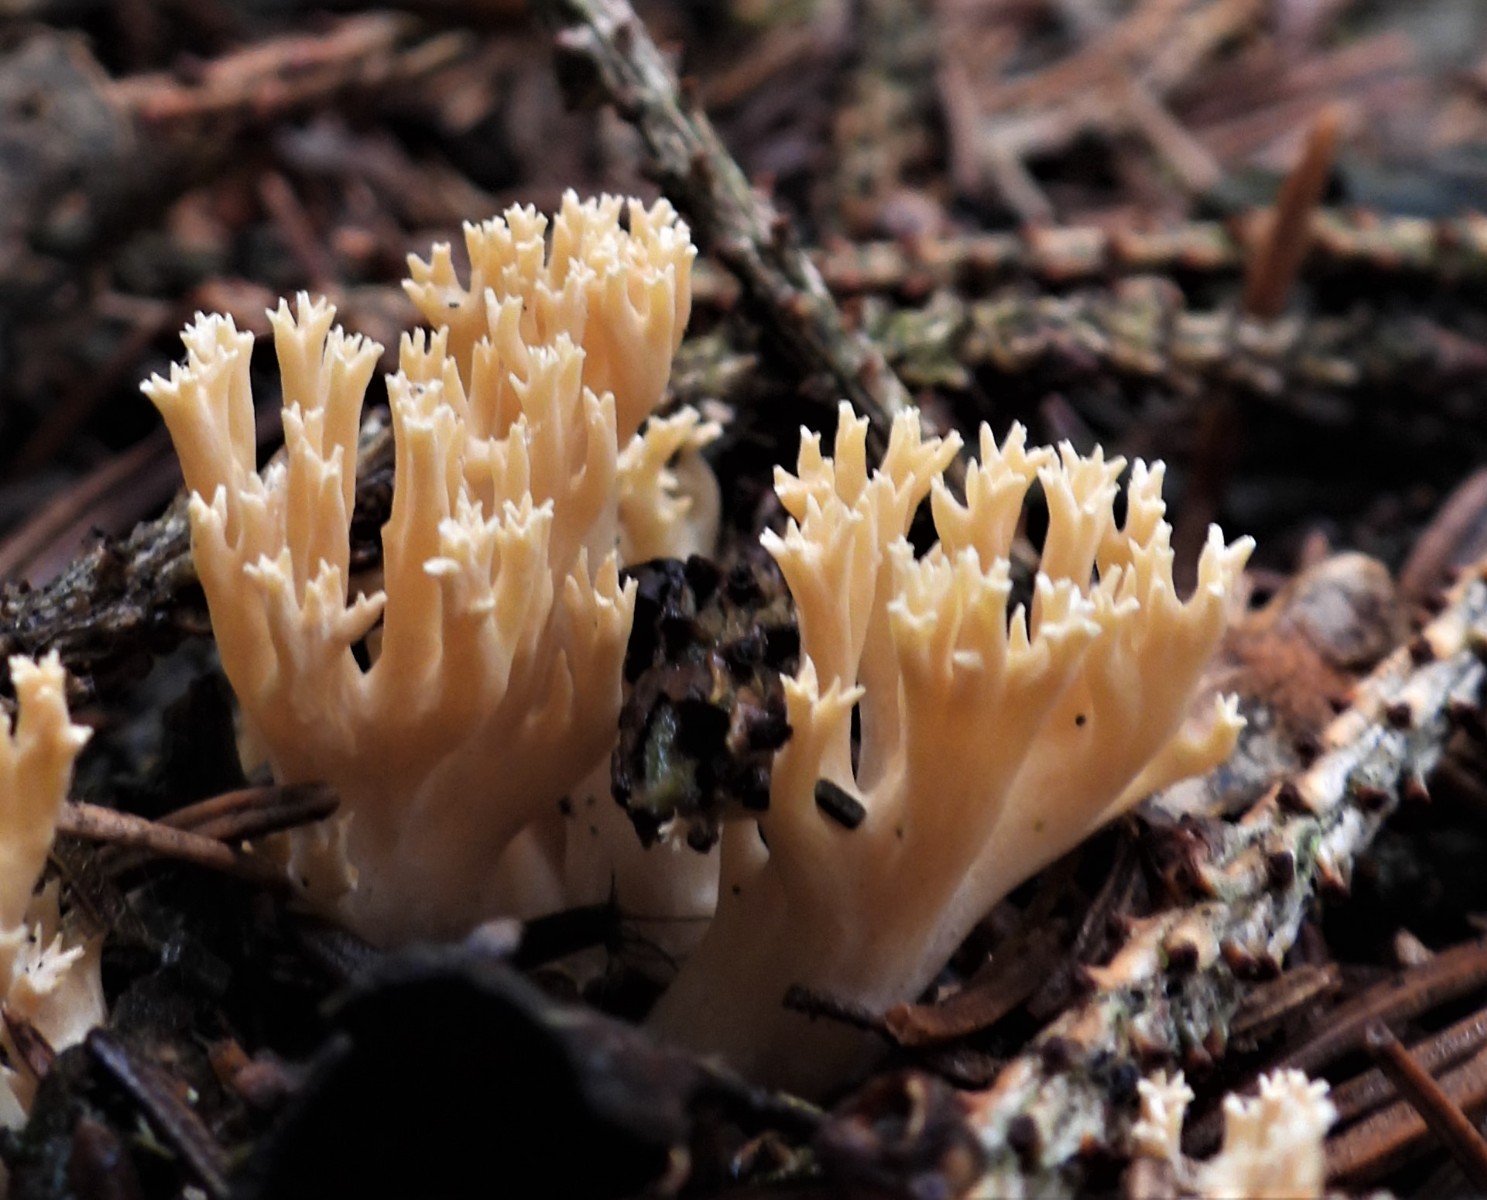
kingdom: Fungi
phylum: Basidiomycota
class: Agaricomycetes
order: Gomphales
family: Gomphaceae
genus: Phaeoclavulina
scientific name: Phaeoclavulina eumorpha
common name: gran-koralsvamp
